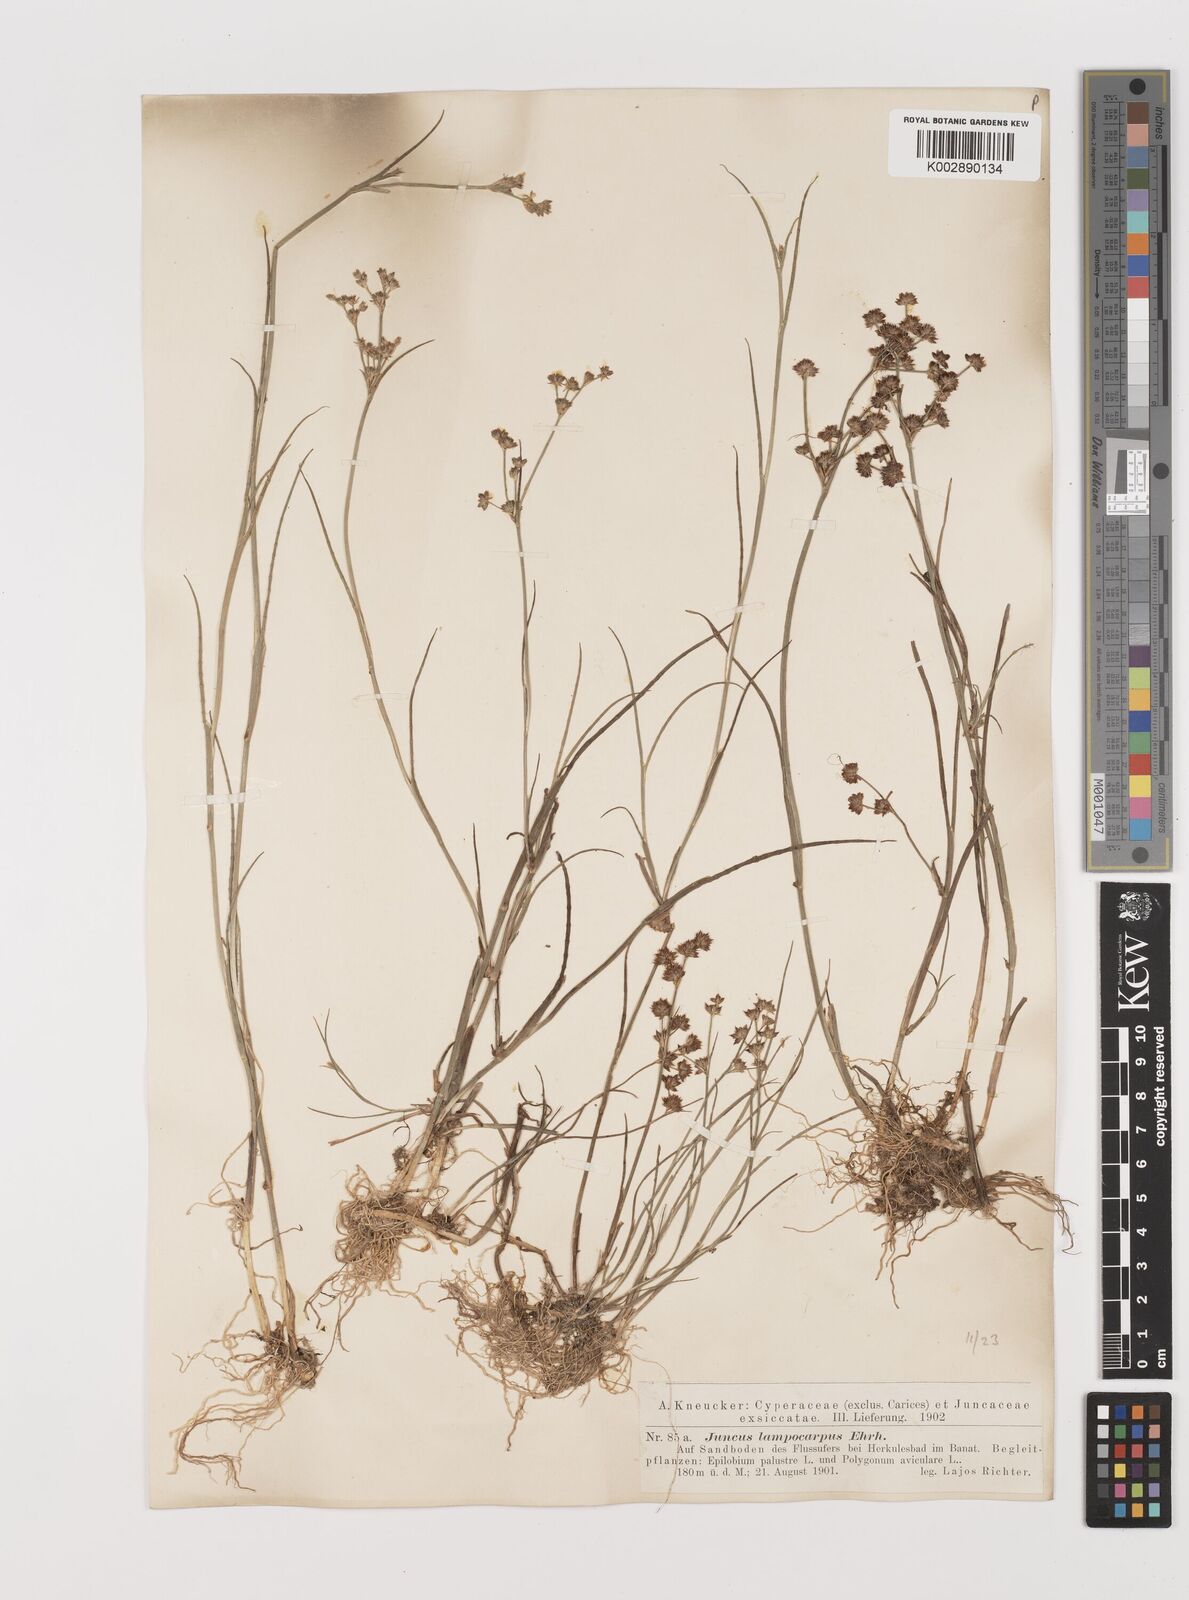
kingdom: Plantae
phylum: Tracheophyta
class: Liliopsida
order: Poales
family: Juncaceae
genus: Juncus
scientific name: Juncus articulatus
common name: Jointed rush
